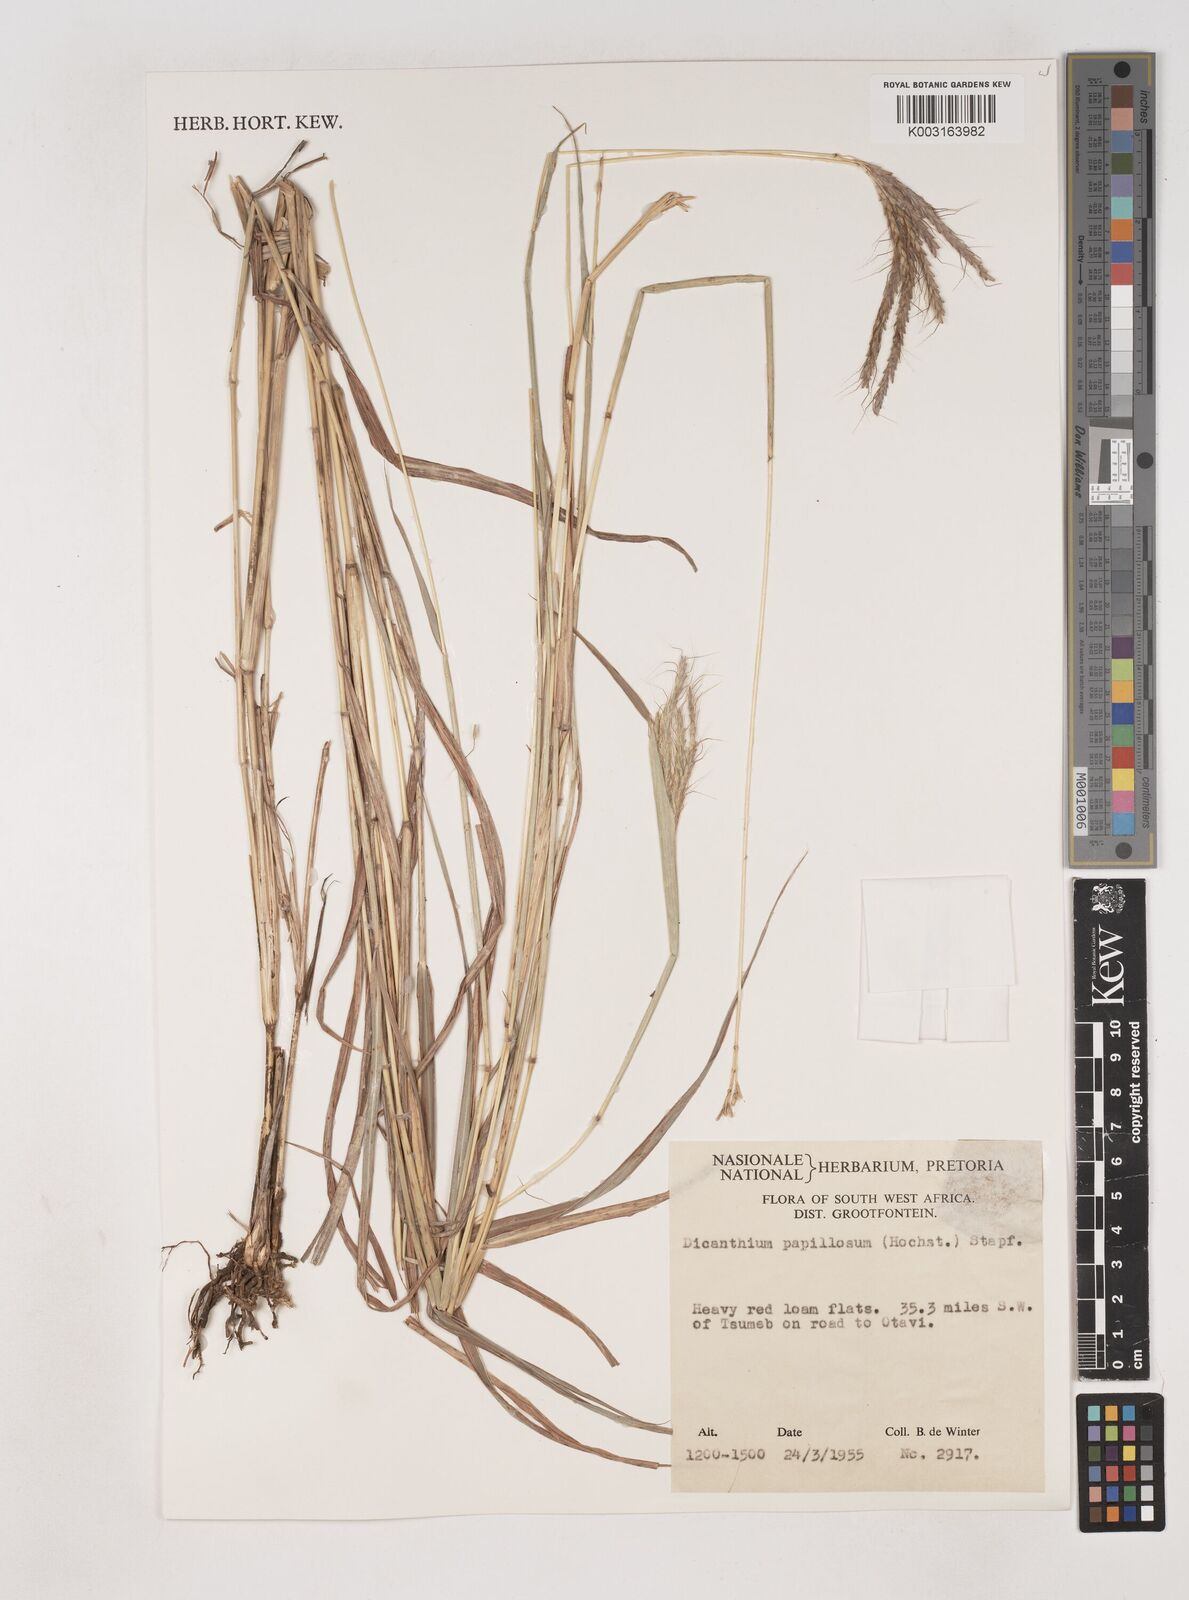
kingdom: Plantae
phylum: Tracheophyta
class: Liliopsida
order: Poales
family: Poaceae
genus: Dichanthium
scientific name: Dichanthium annulatum
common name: Kleberg's bluestem
